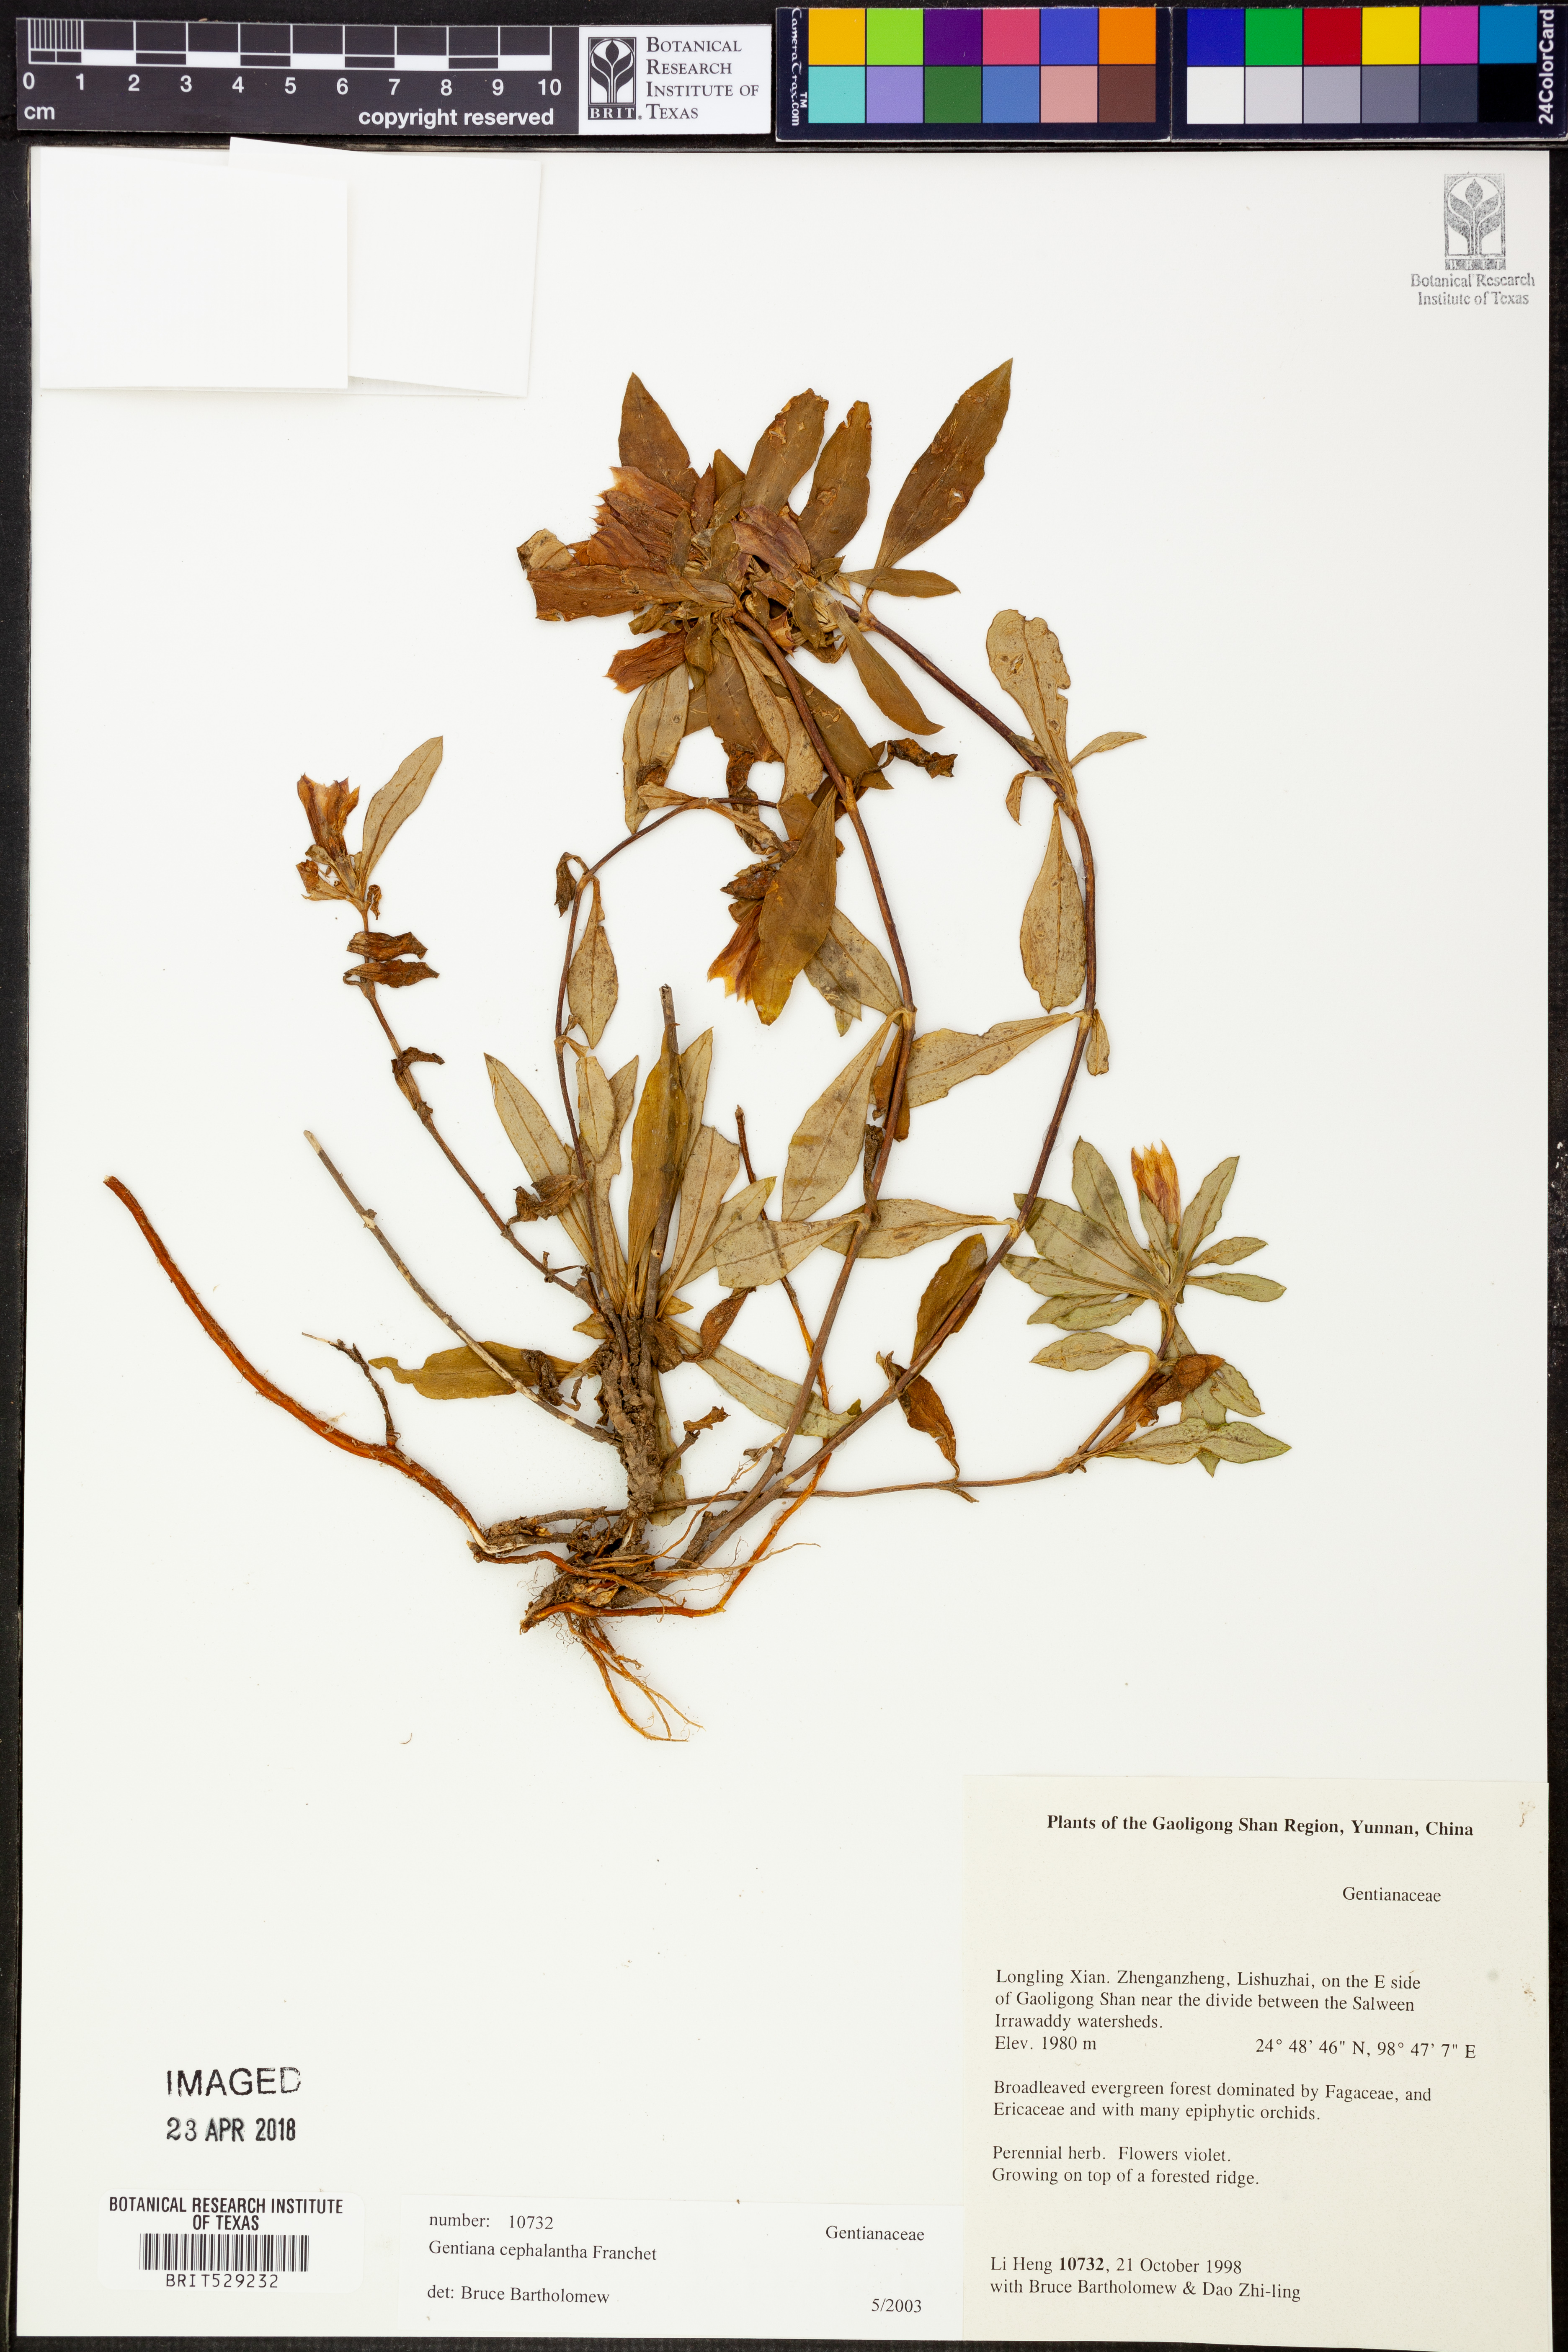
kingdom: Plantae
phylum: Tracheophyta
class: Magnoliopsida
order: Gentianales
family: Gentianaceae
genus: Gentiana
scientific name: Gentiana cephalantha
